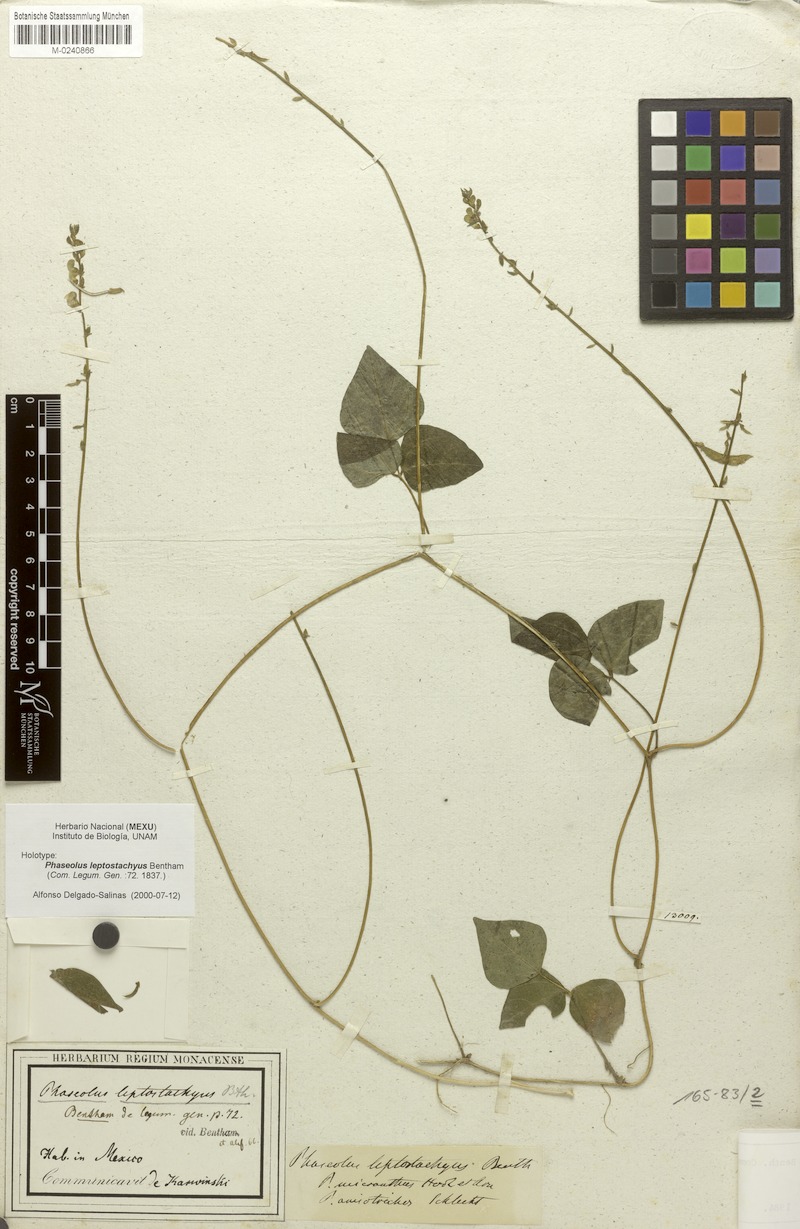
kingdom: Plantae
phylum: Tracheophyta
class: Magnoliopsida
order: Fabales
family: Fabaceae
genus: Phaseolus
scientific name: Phaseolus leptostachyus
